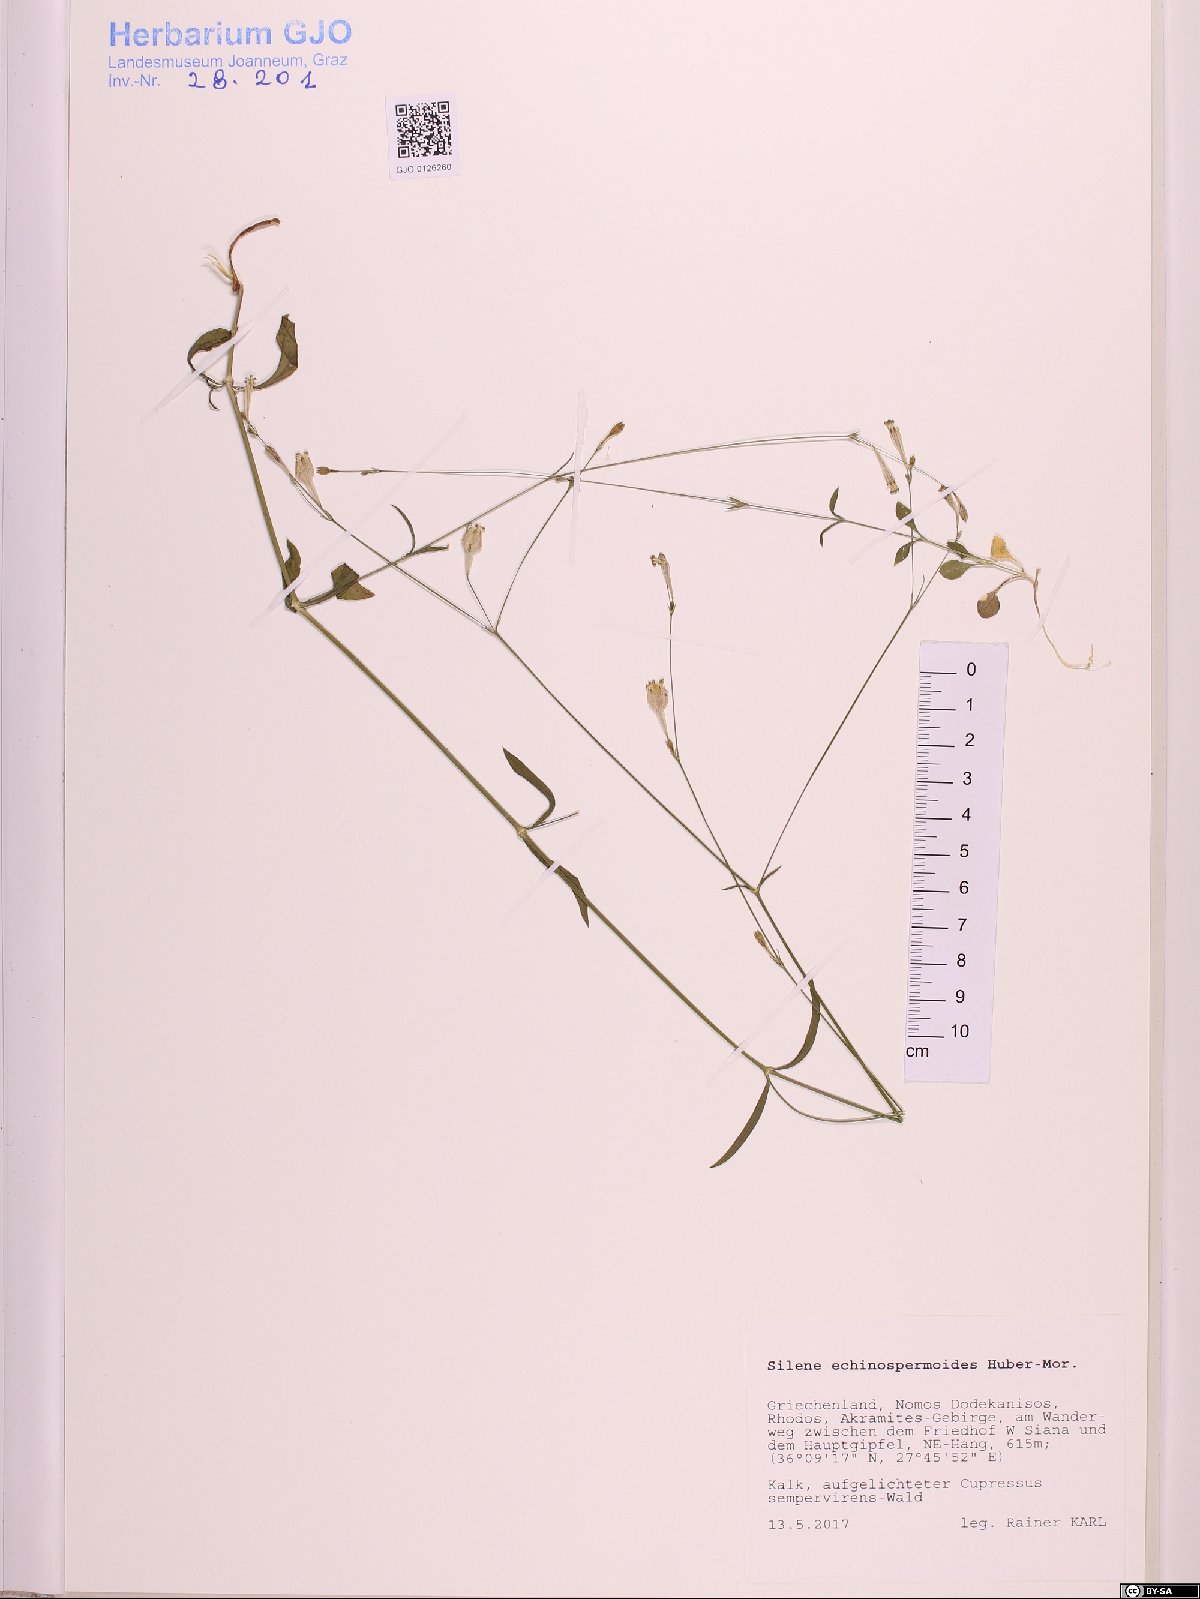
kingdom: Plantae
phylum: Tracheophyta
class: Magnoliopsida
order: Caryophyllales
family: Caryophyllaceae
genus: Silene
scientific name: Silene echinospermoides
